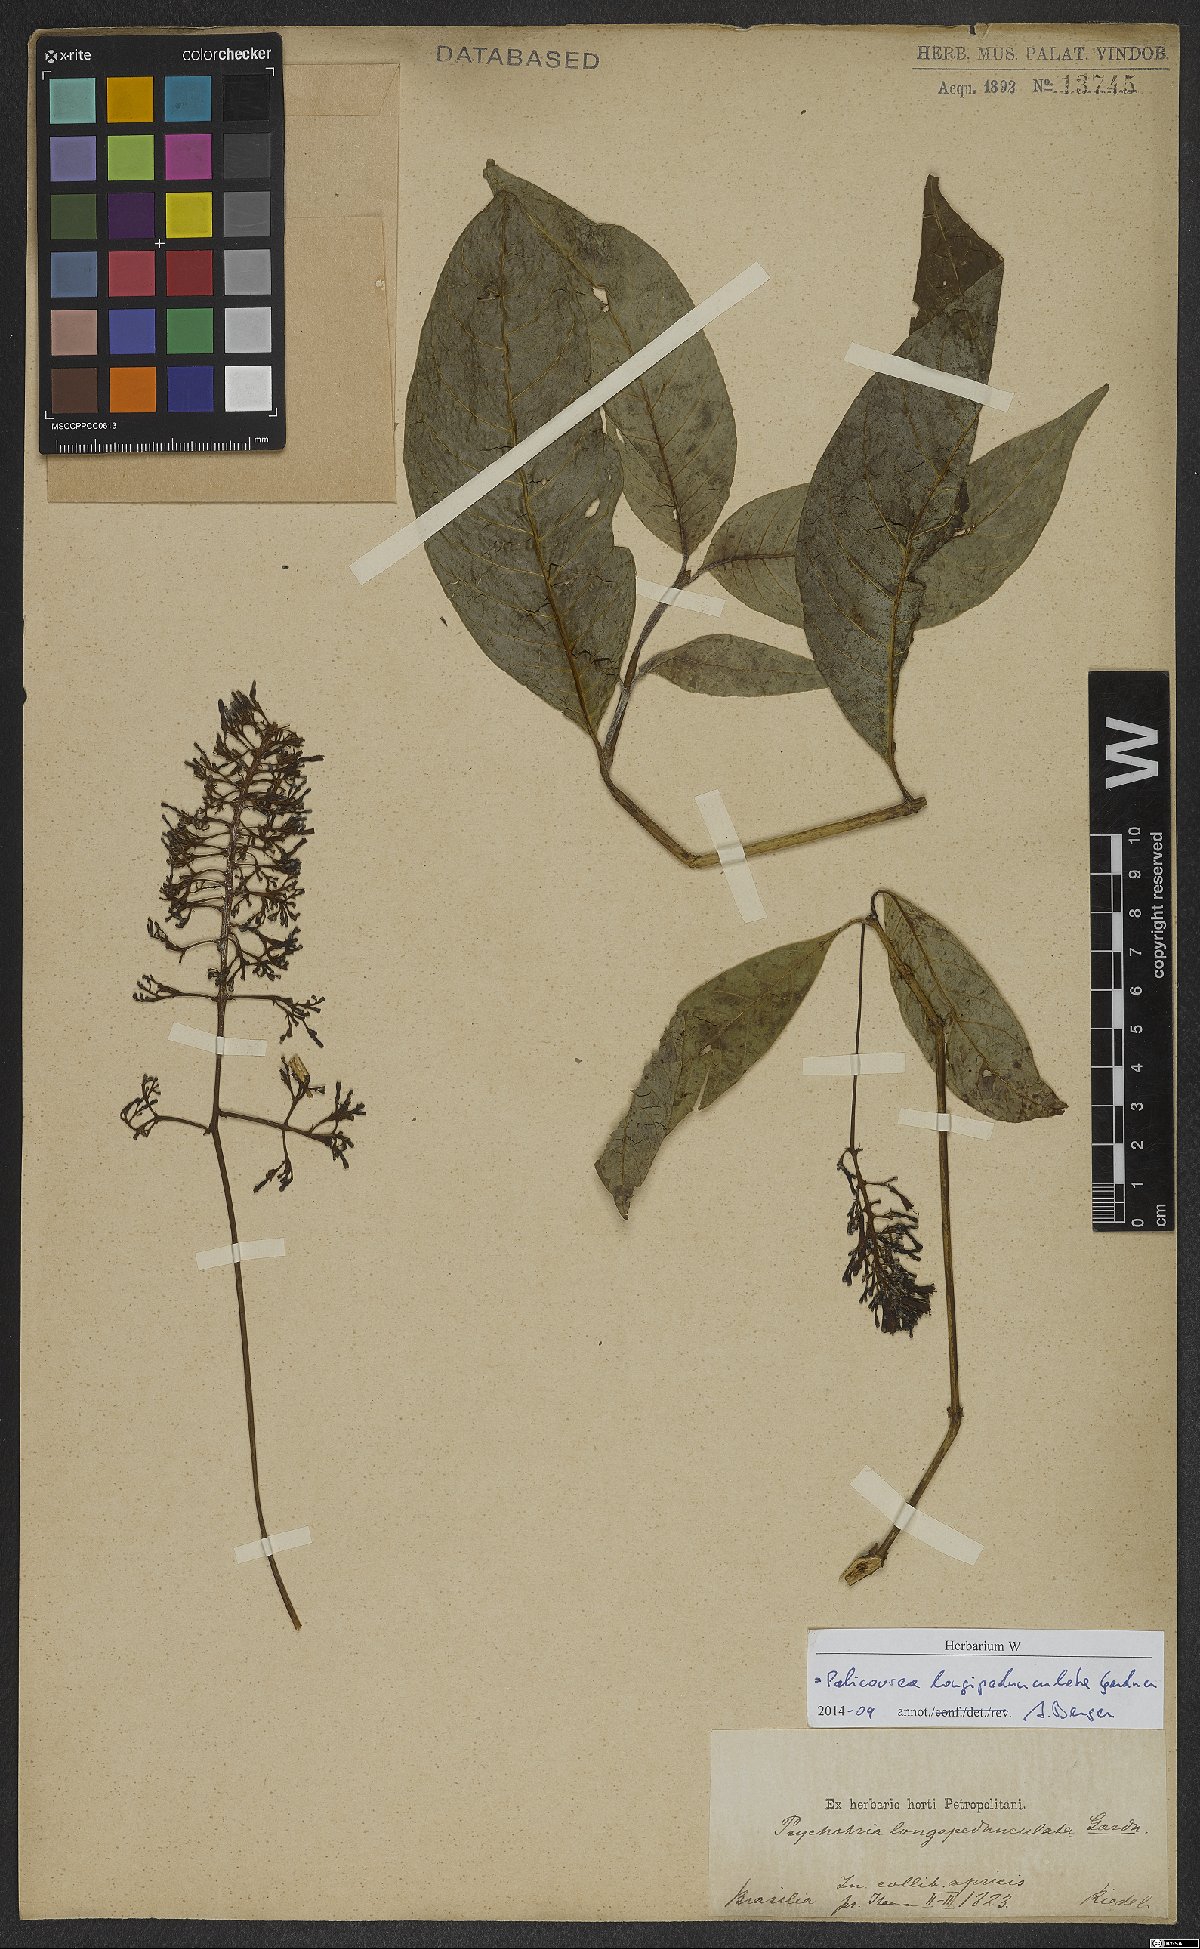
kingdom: Plantae
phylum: Tracheophyta
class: Magnoliopsida
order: Gentianales
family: Rubiaceae
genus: Palicourea
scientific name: Palicourea longipedunculata
